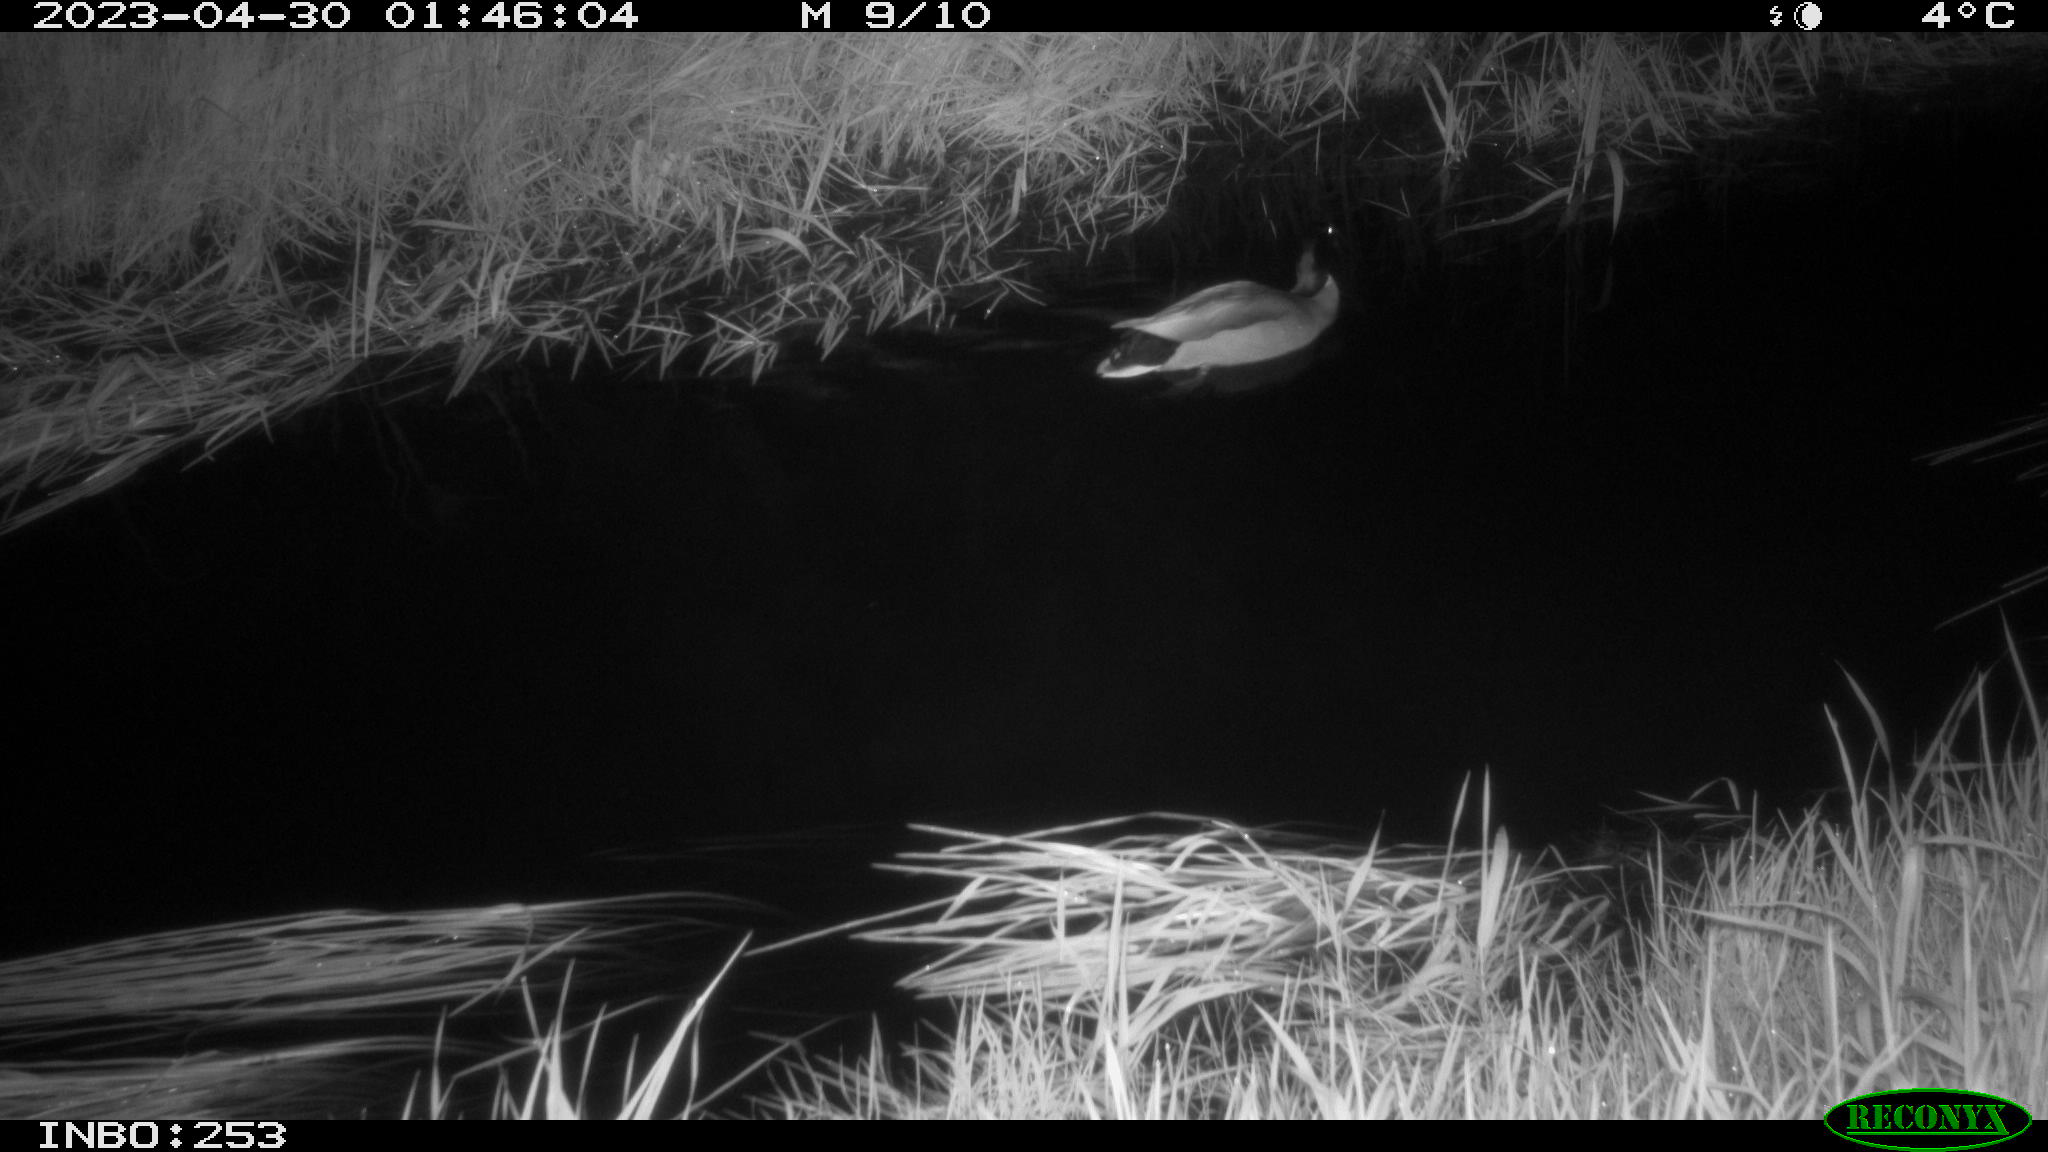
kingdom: Animalia
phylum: Chordata
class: Aves
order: Anseriformes
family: Anatidae
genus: Anas
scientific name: Anas
